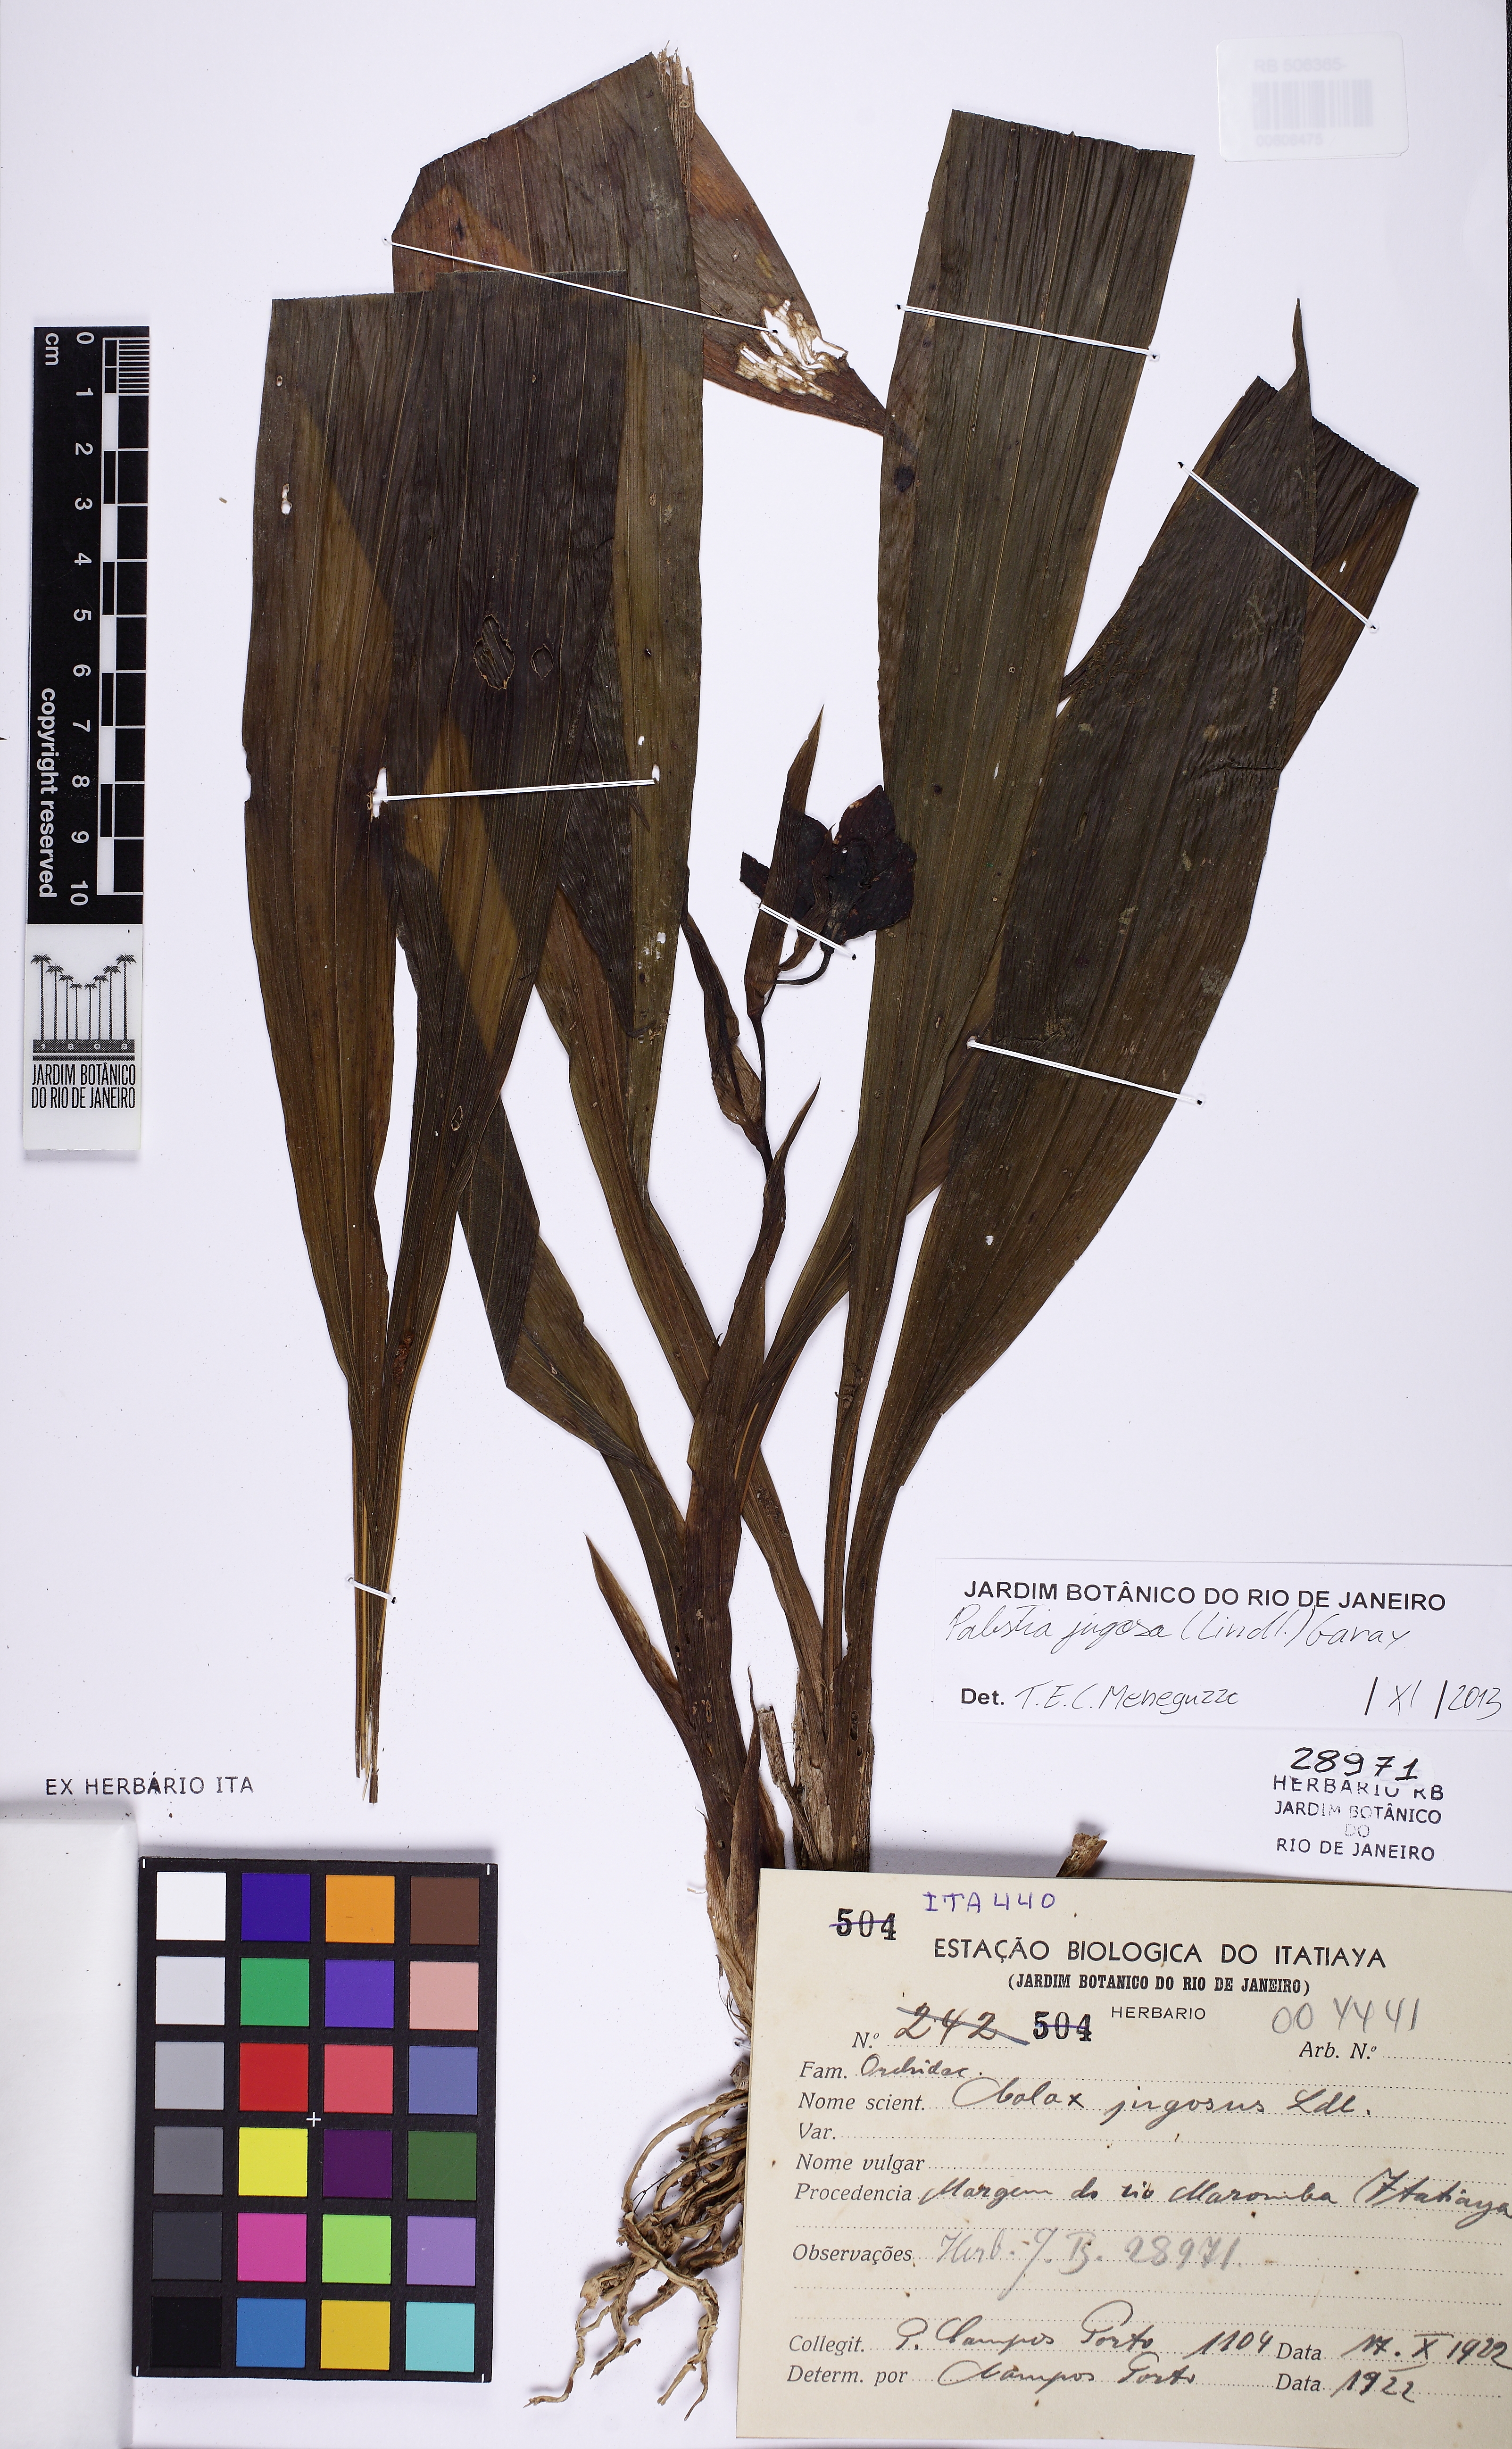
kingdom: Plantae
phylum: Tracheophyta
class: Liliopsida
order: Asparagales
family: Orchidaceae
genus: Pabstia
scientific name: Pabstia jugosa
